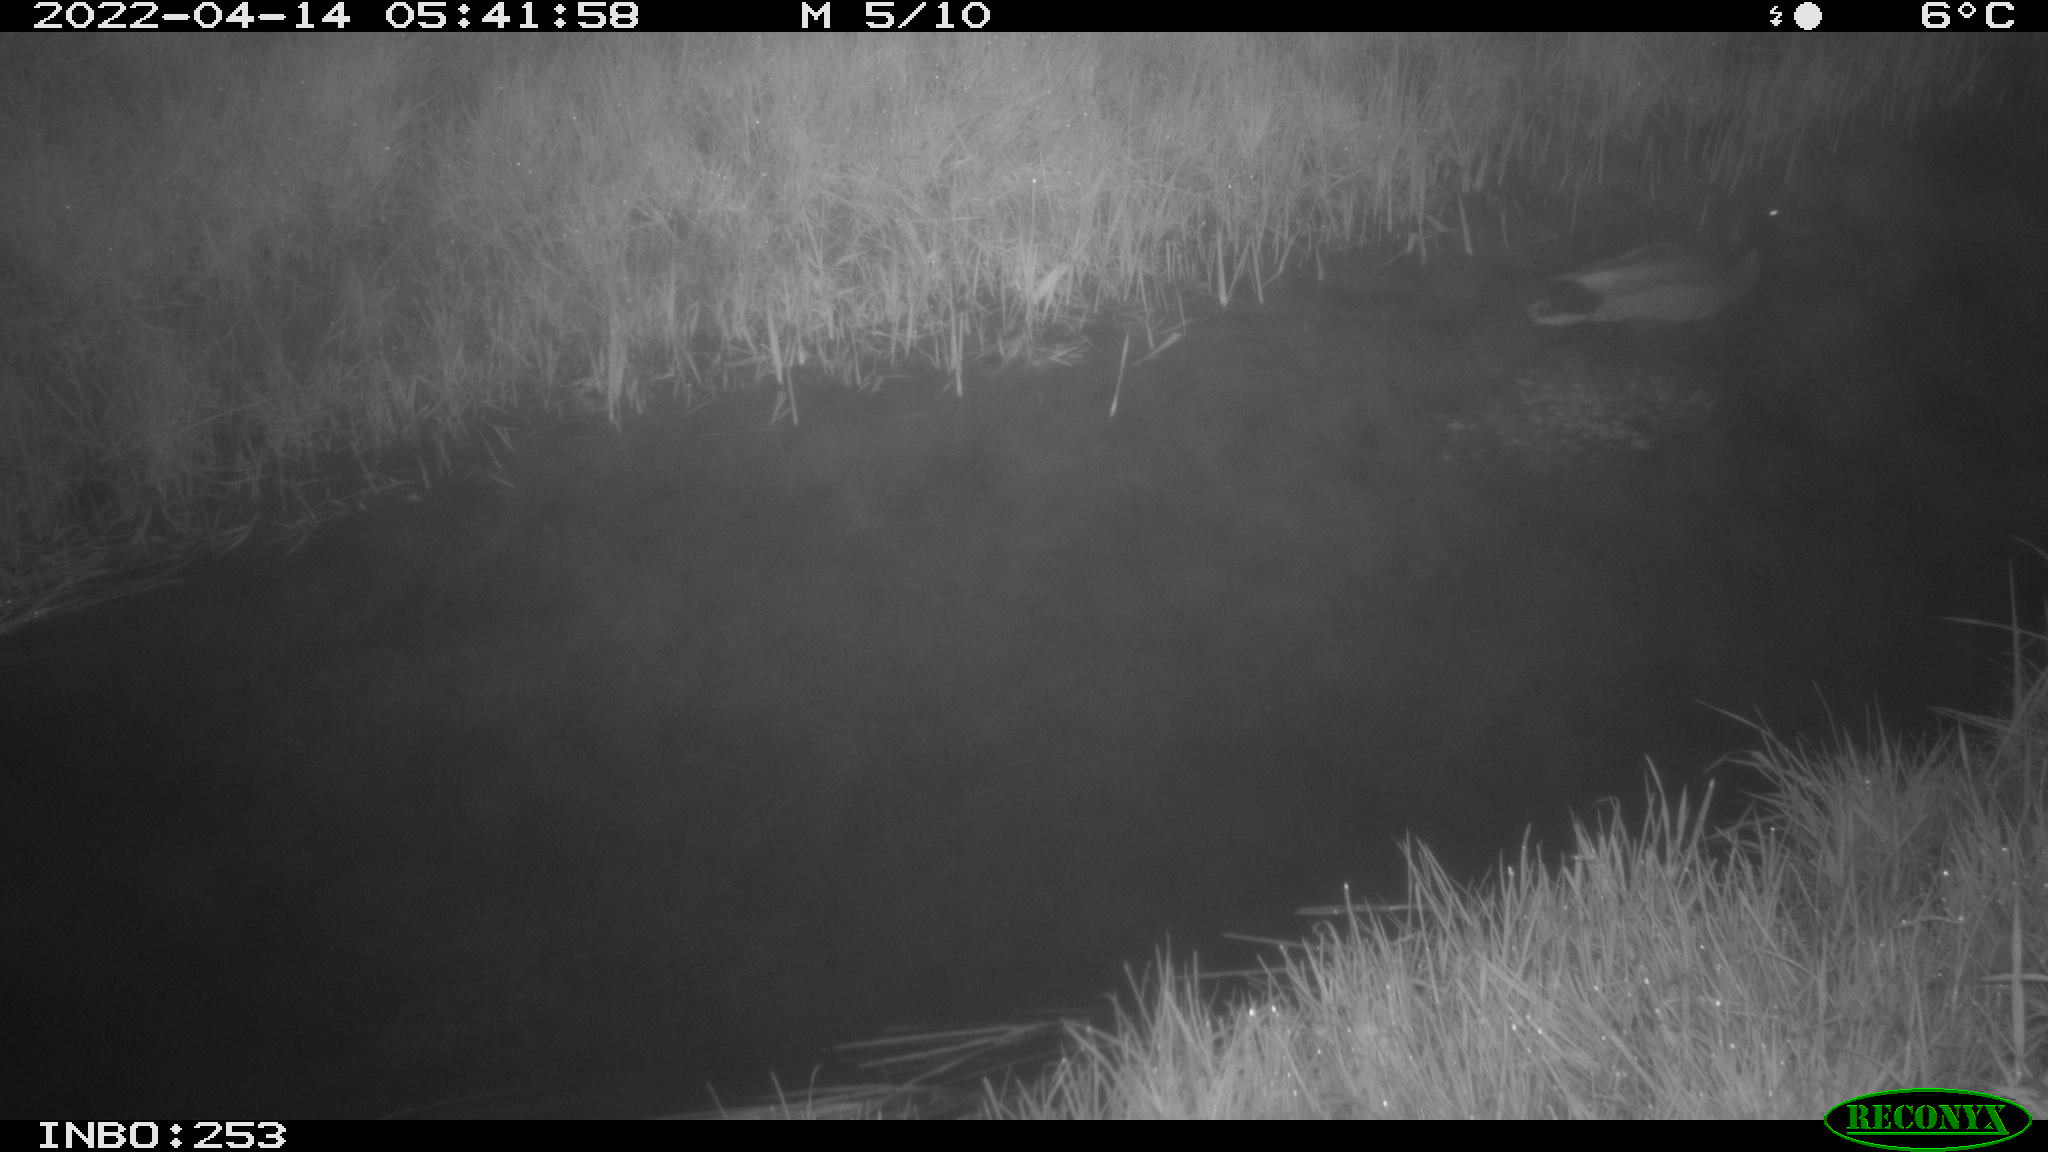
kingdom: Animalia
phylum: Chordata
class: Aves
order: Anseriformes
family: Anatidae
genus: Anas
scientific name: Anas platyrhynchos
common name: Mallard
